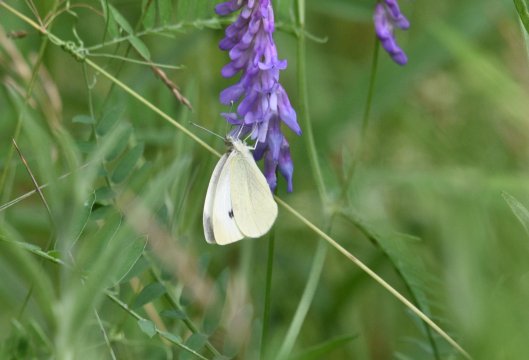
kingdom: Animalia
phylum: Arthropoda
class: Insecta
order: Lepidoptera
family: Pieridae
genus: Pieris
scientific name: Pieris rapae
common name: Cabbage White
